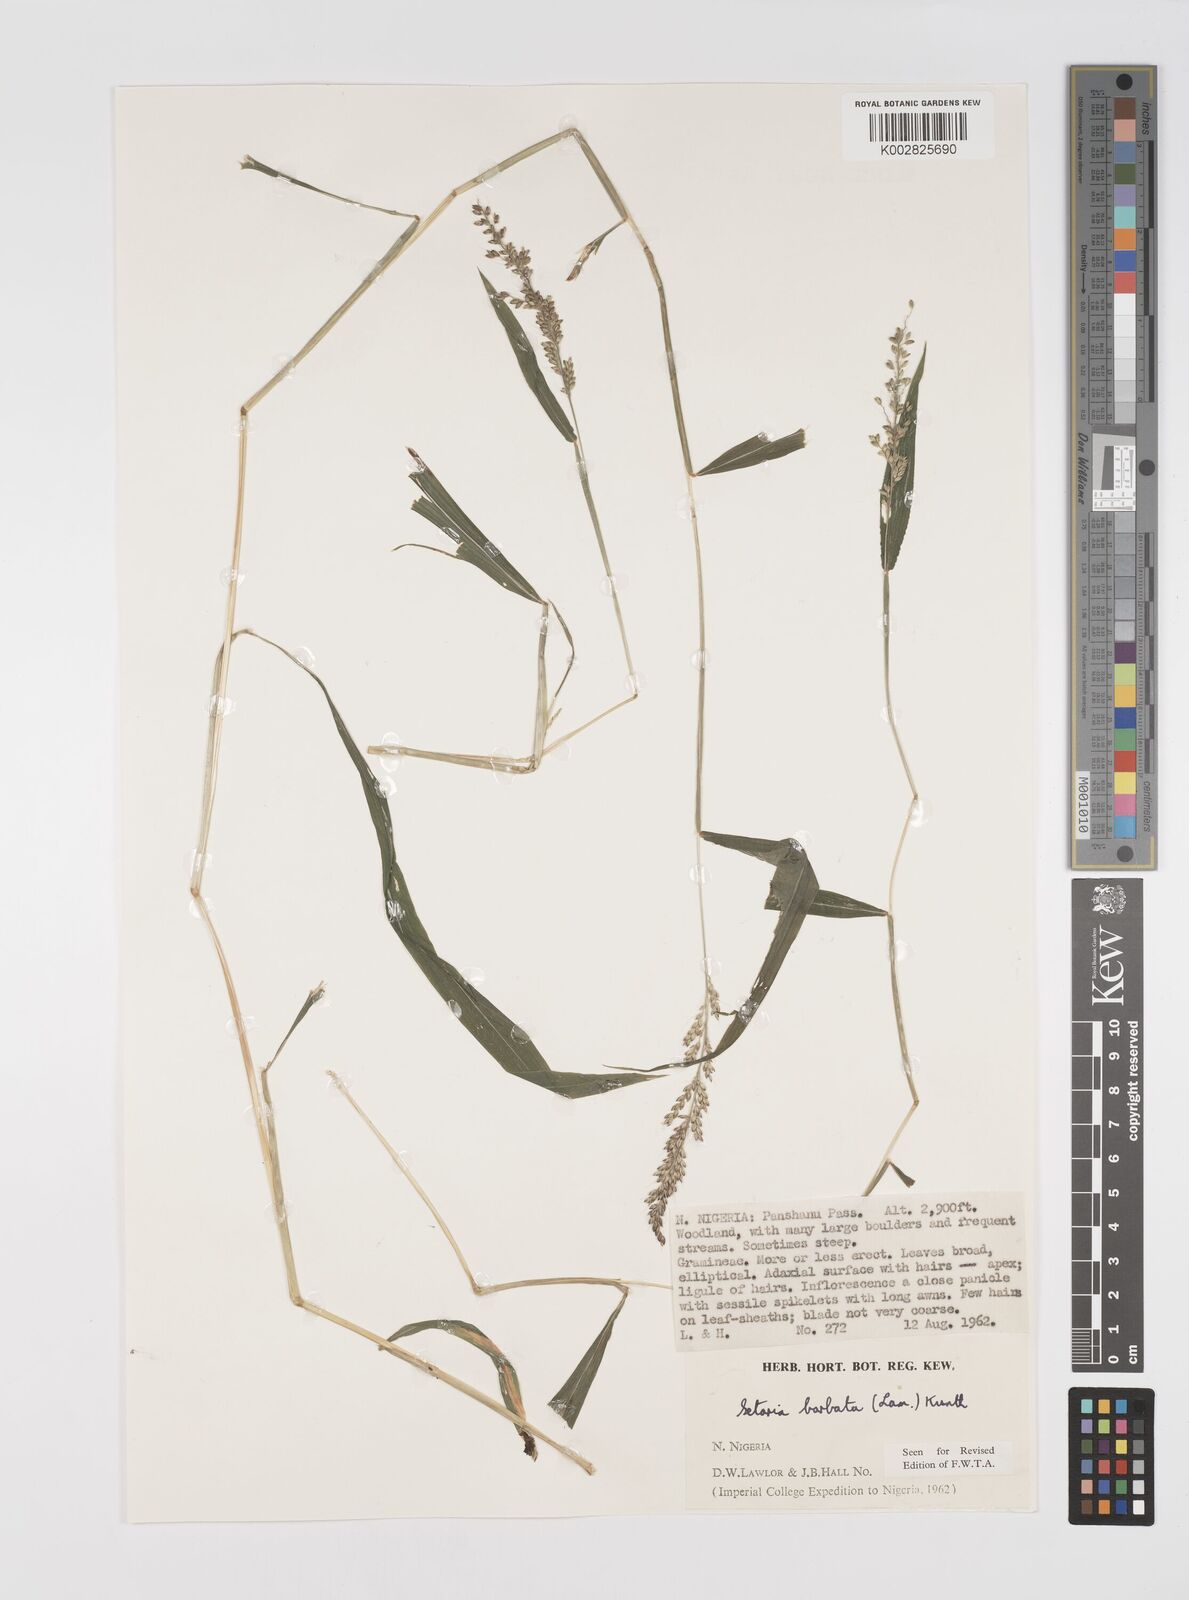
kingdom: Plantae
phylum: Tracheophyta
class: Liliopsida
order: Poales
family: Poaceae
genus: Setaria
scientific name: Setaria barbata
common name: East indian bristlegrass
